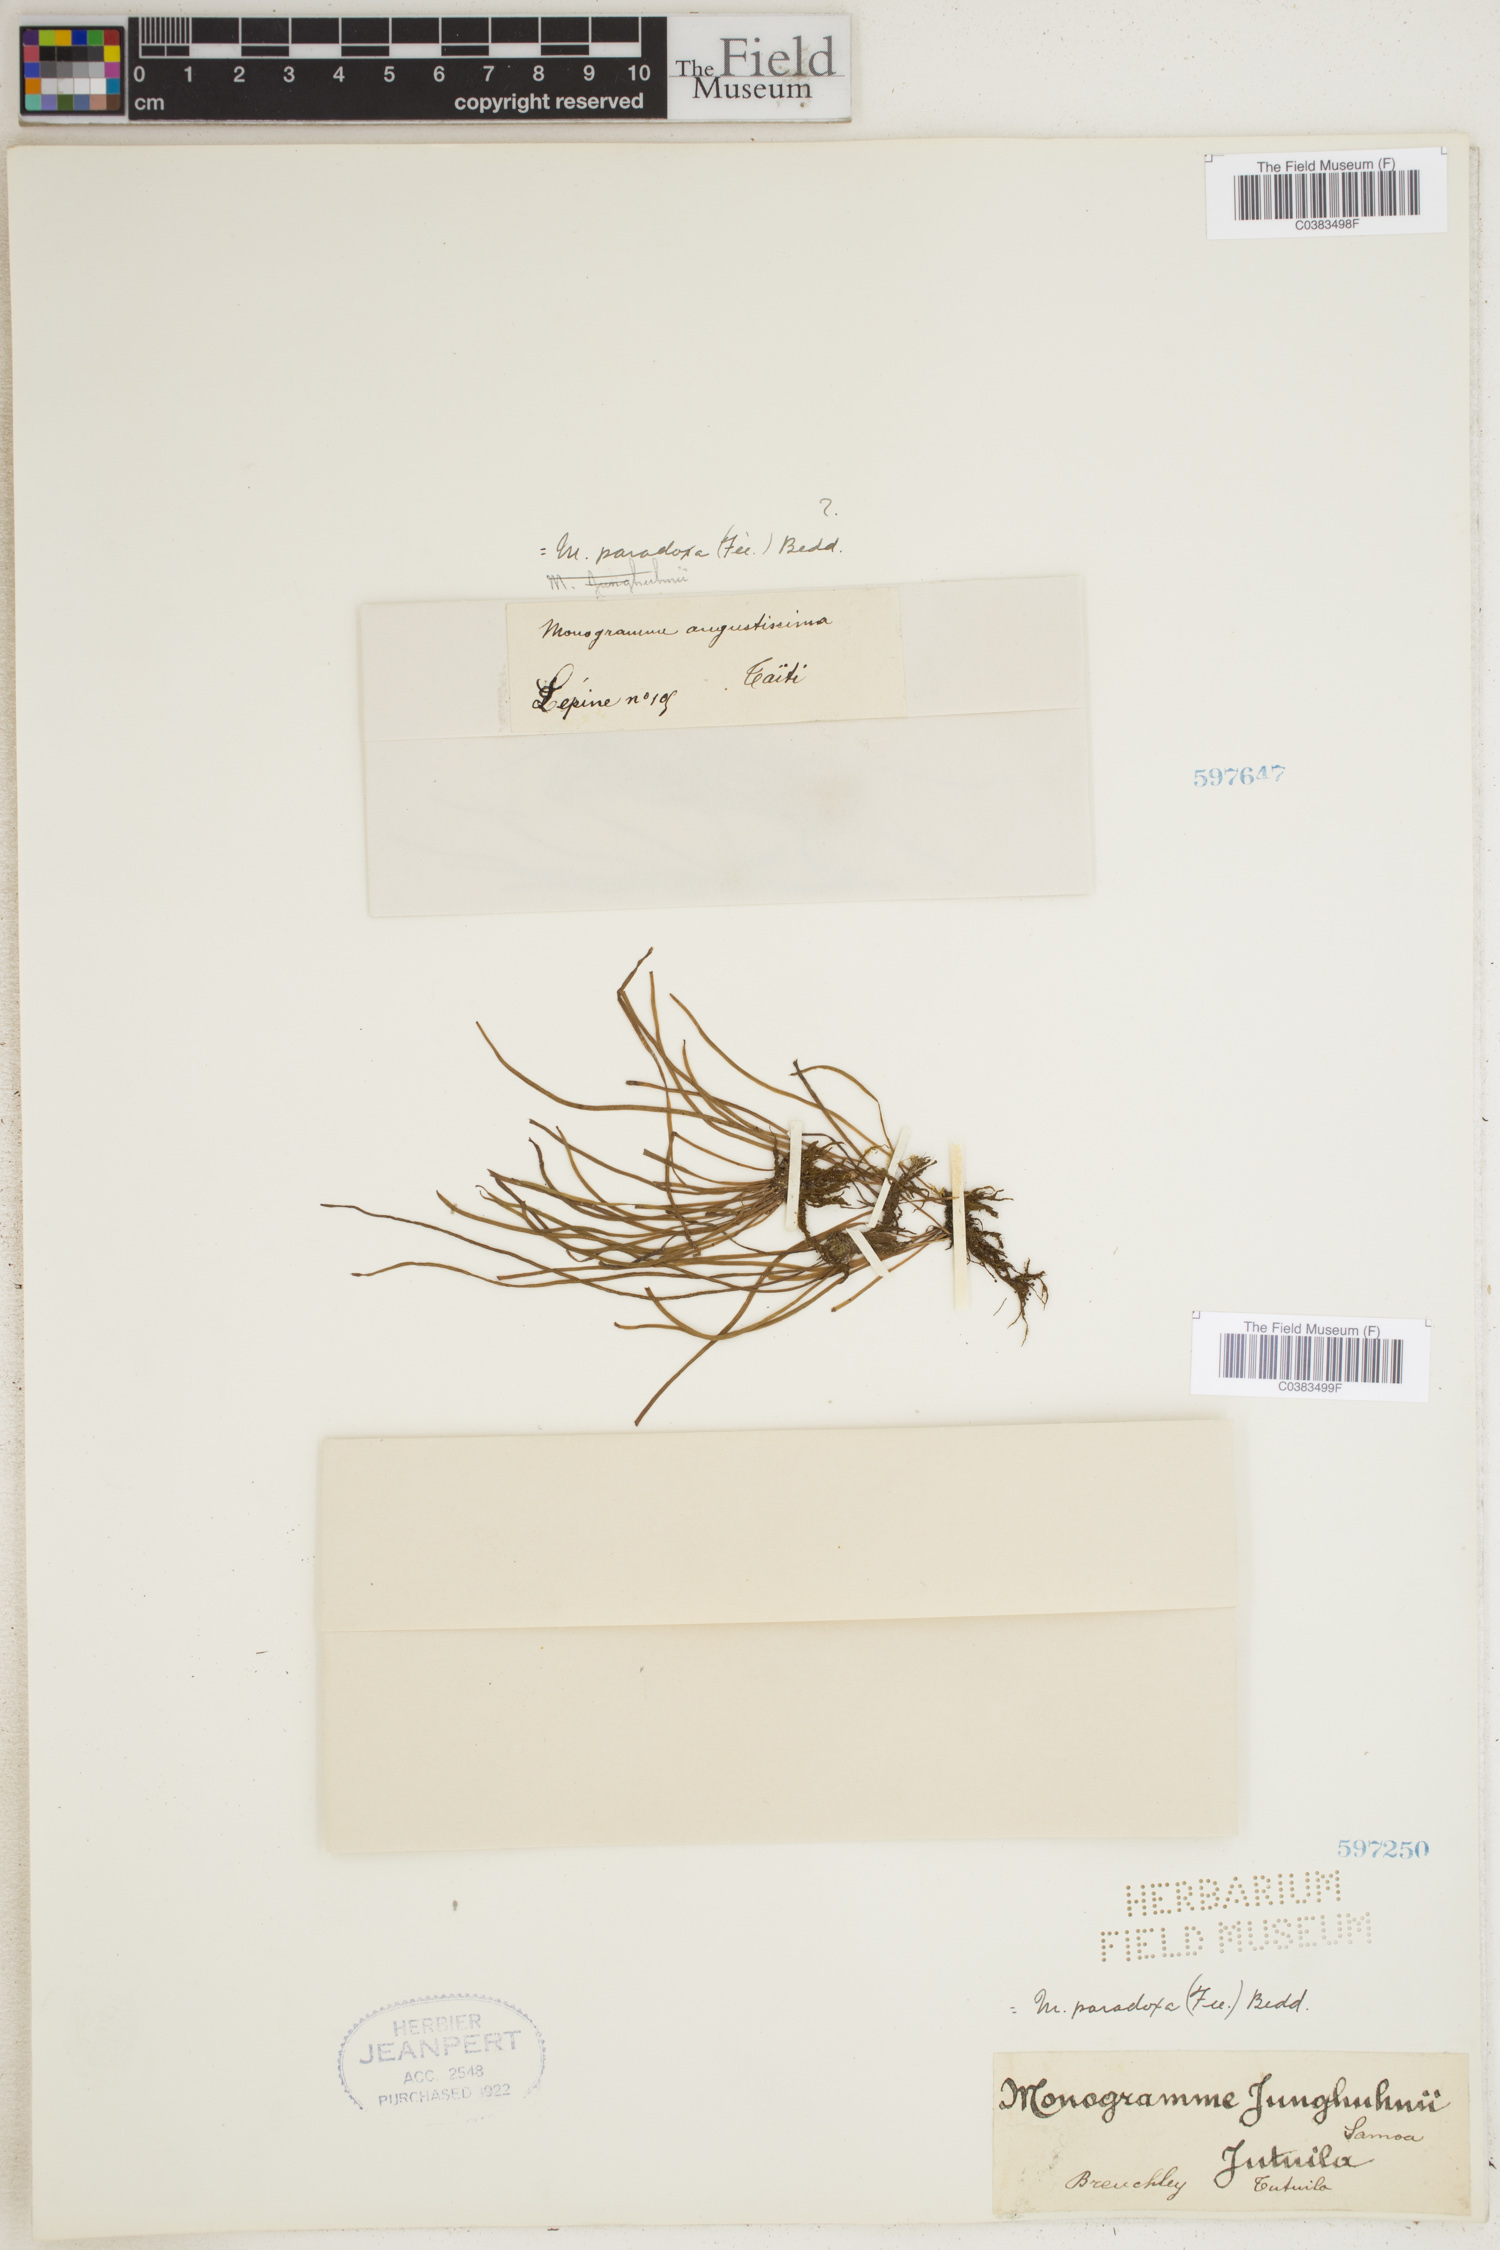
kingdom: Plantae
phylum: Tracheophyta
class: Polypodiopsida
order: Polypodiales
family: Pteridaceae
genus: Vaginularia
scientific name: Vaginularia paradoxa
